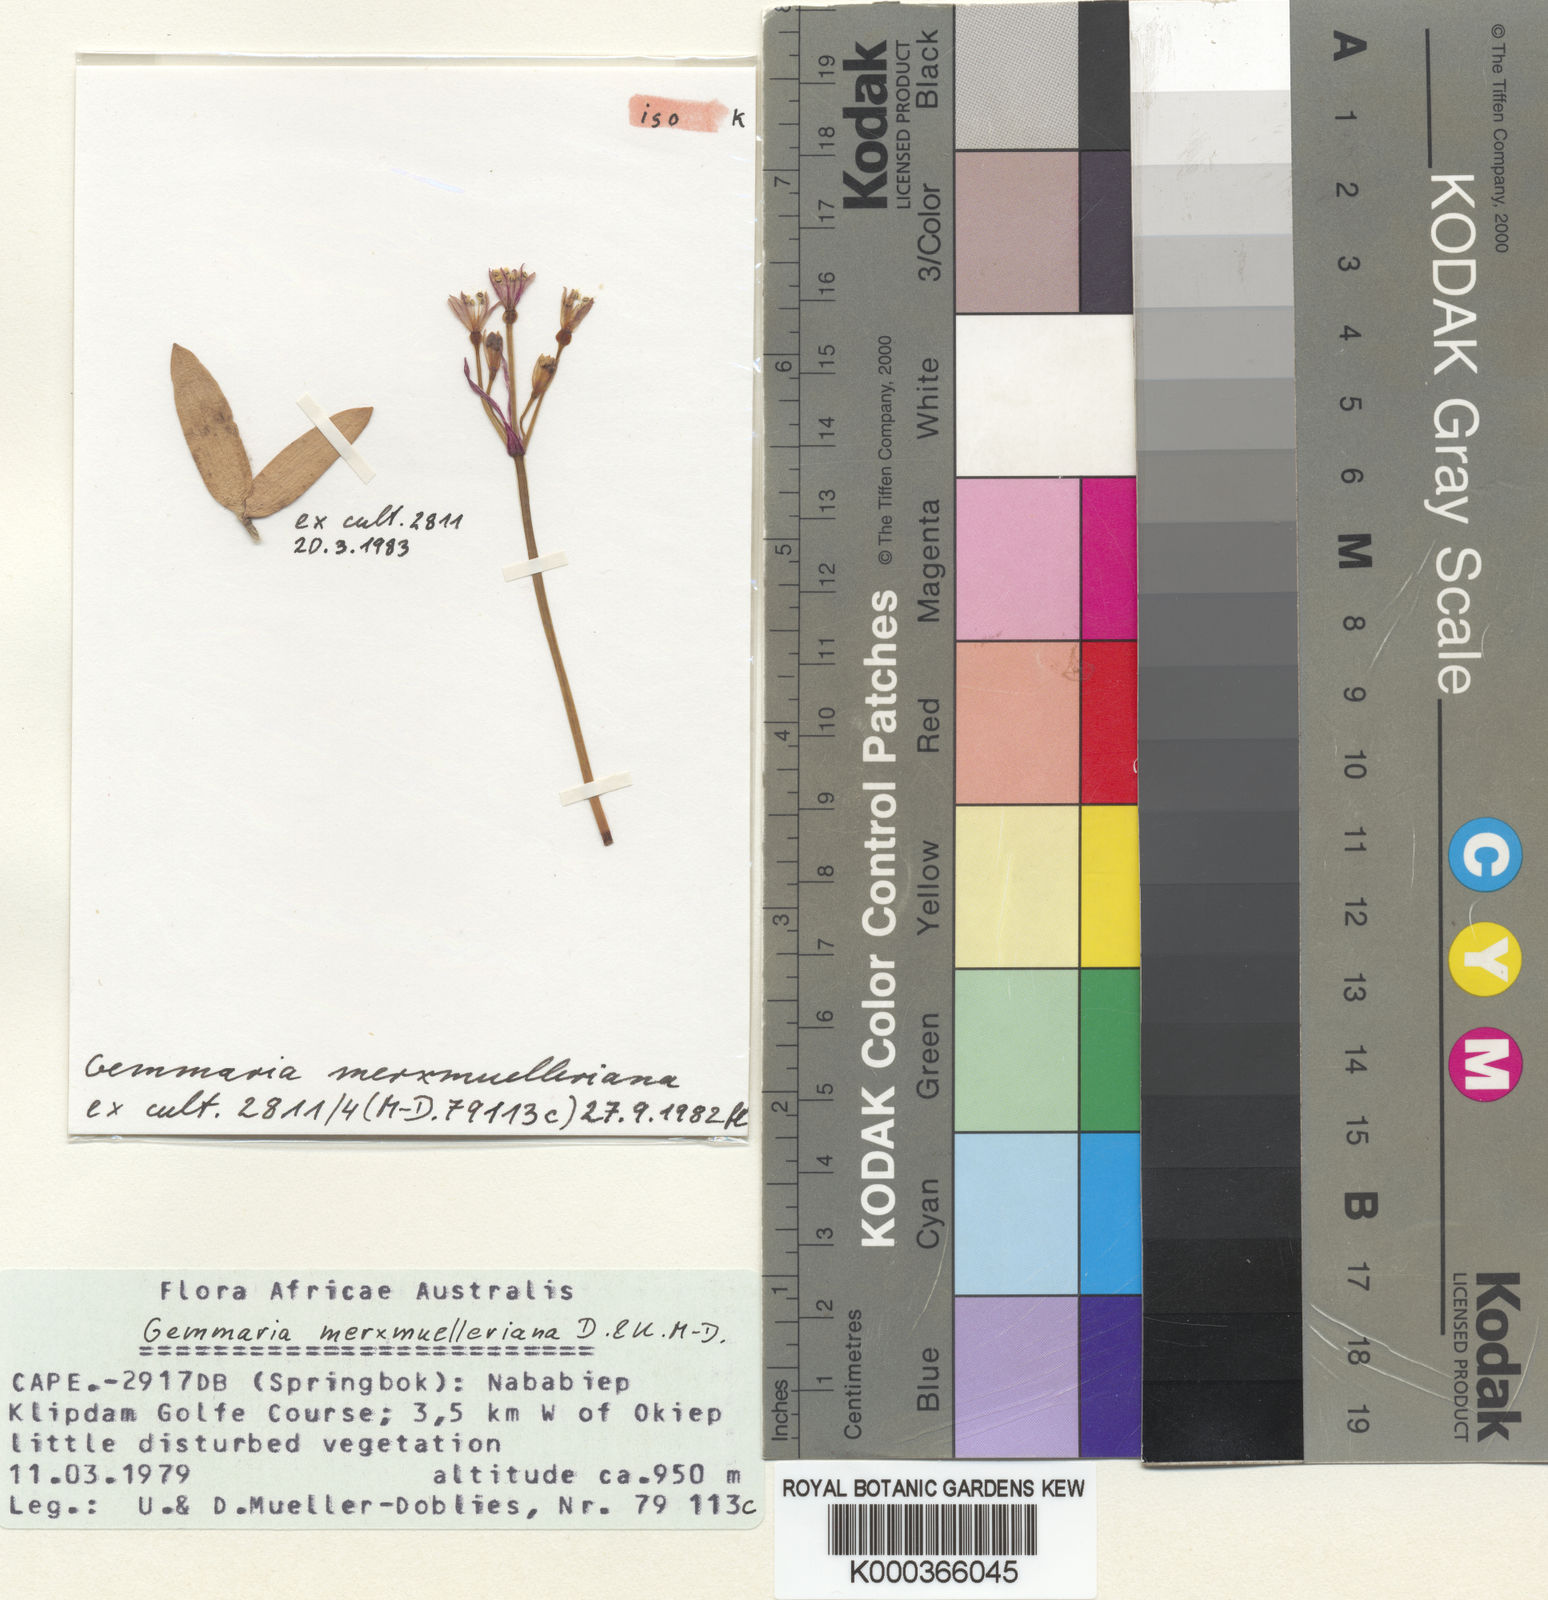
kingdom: Plantae
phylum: Tracheophyta
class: Liliopsida
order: Asparagales
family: Amaryllidaceae
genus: Strumaria
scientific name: Strumaria
